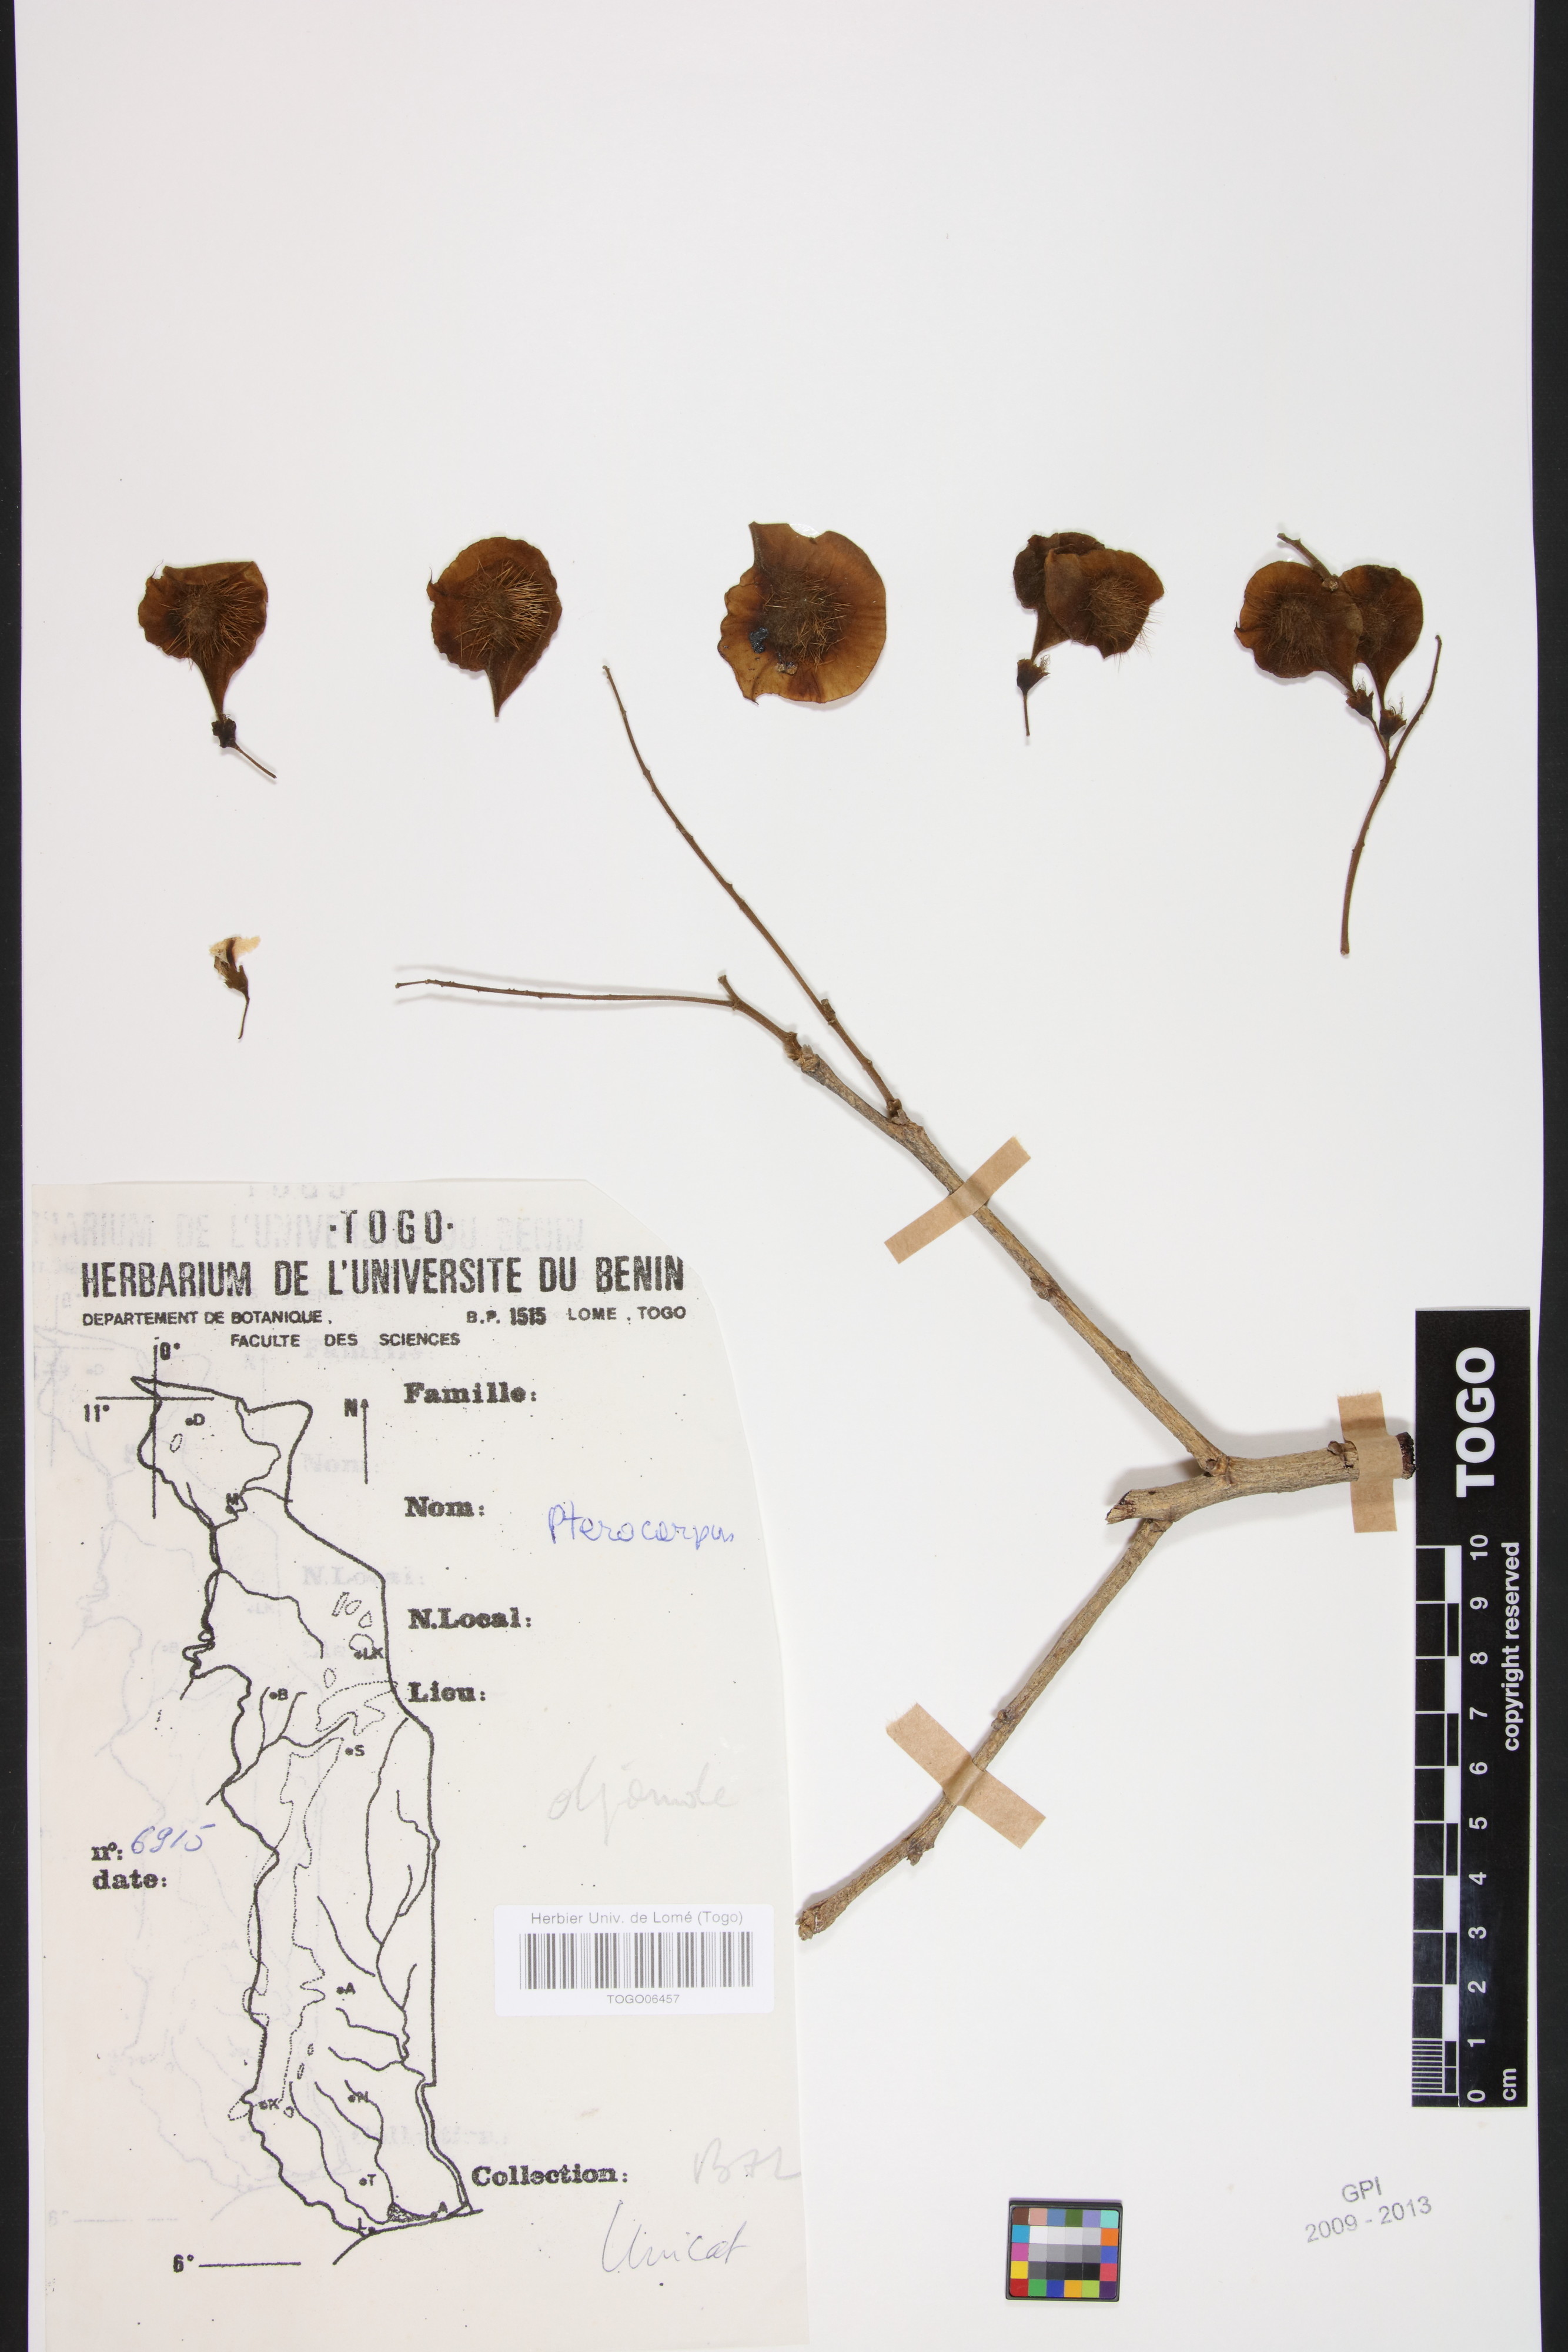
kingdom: Plantae
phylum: Tracheophyta
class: Magnoliopsida
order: Fabales
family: Fabaceae
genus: Pterocarpus
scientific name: Pterocarpus erinaceus
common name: African rosewood
